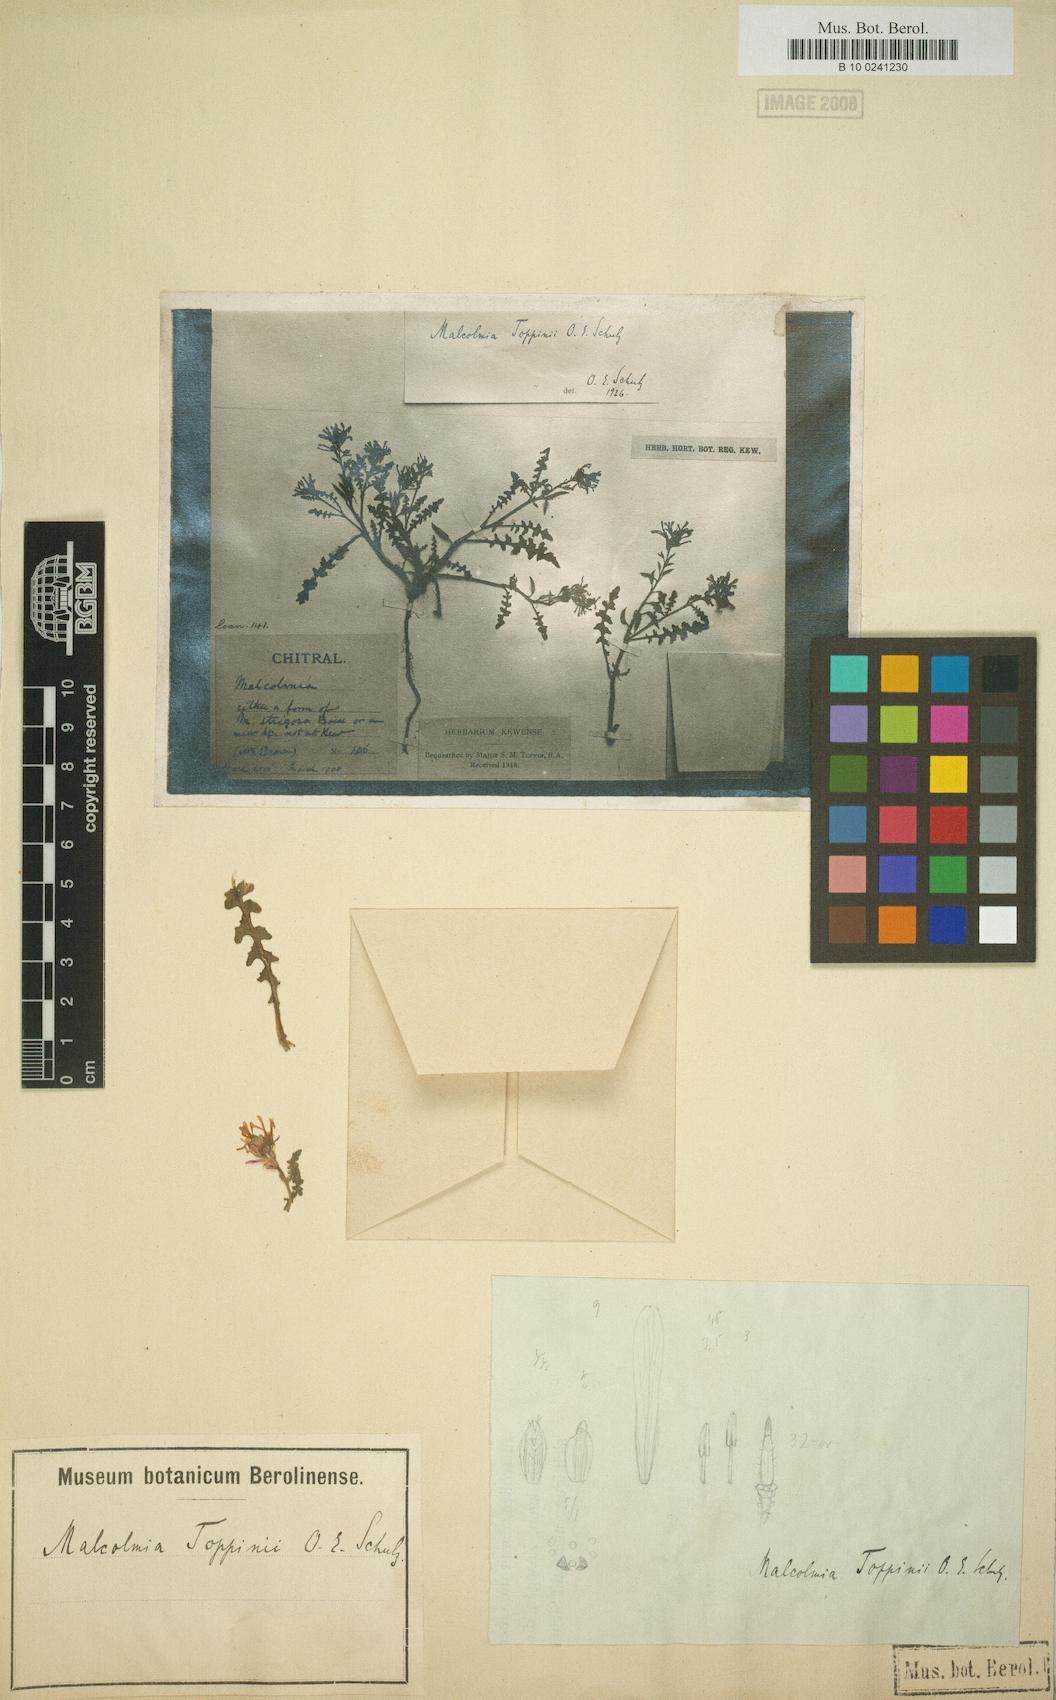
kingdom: Plantae
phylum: Tracheophyta
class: Magnoliopsida
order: Brassicales
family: Brassicaceae
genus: Strigosella
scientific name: Strigosella toppinii
